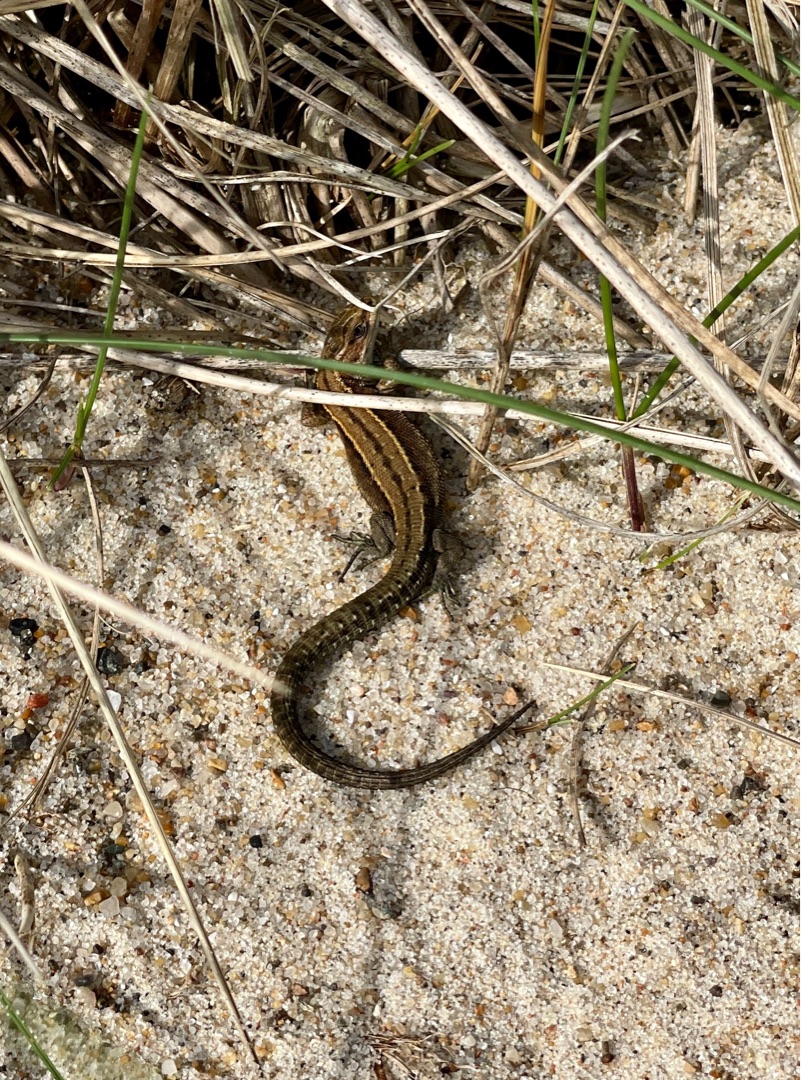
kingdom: Animalia
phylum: Chordata
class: Squamata
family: Lacertidae
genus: Zootoca
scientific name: Zootoca vivipara
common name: Skovfirben
